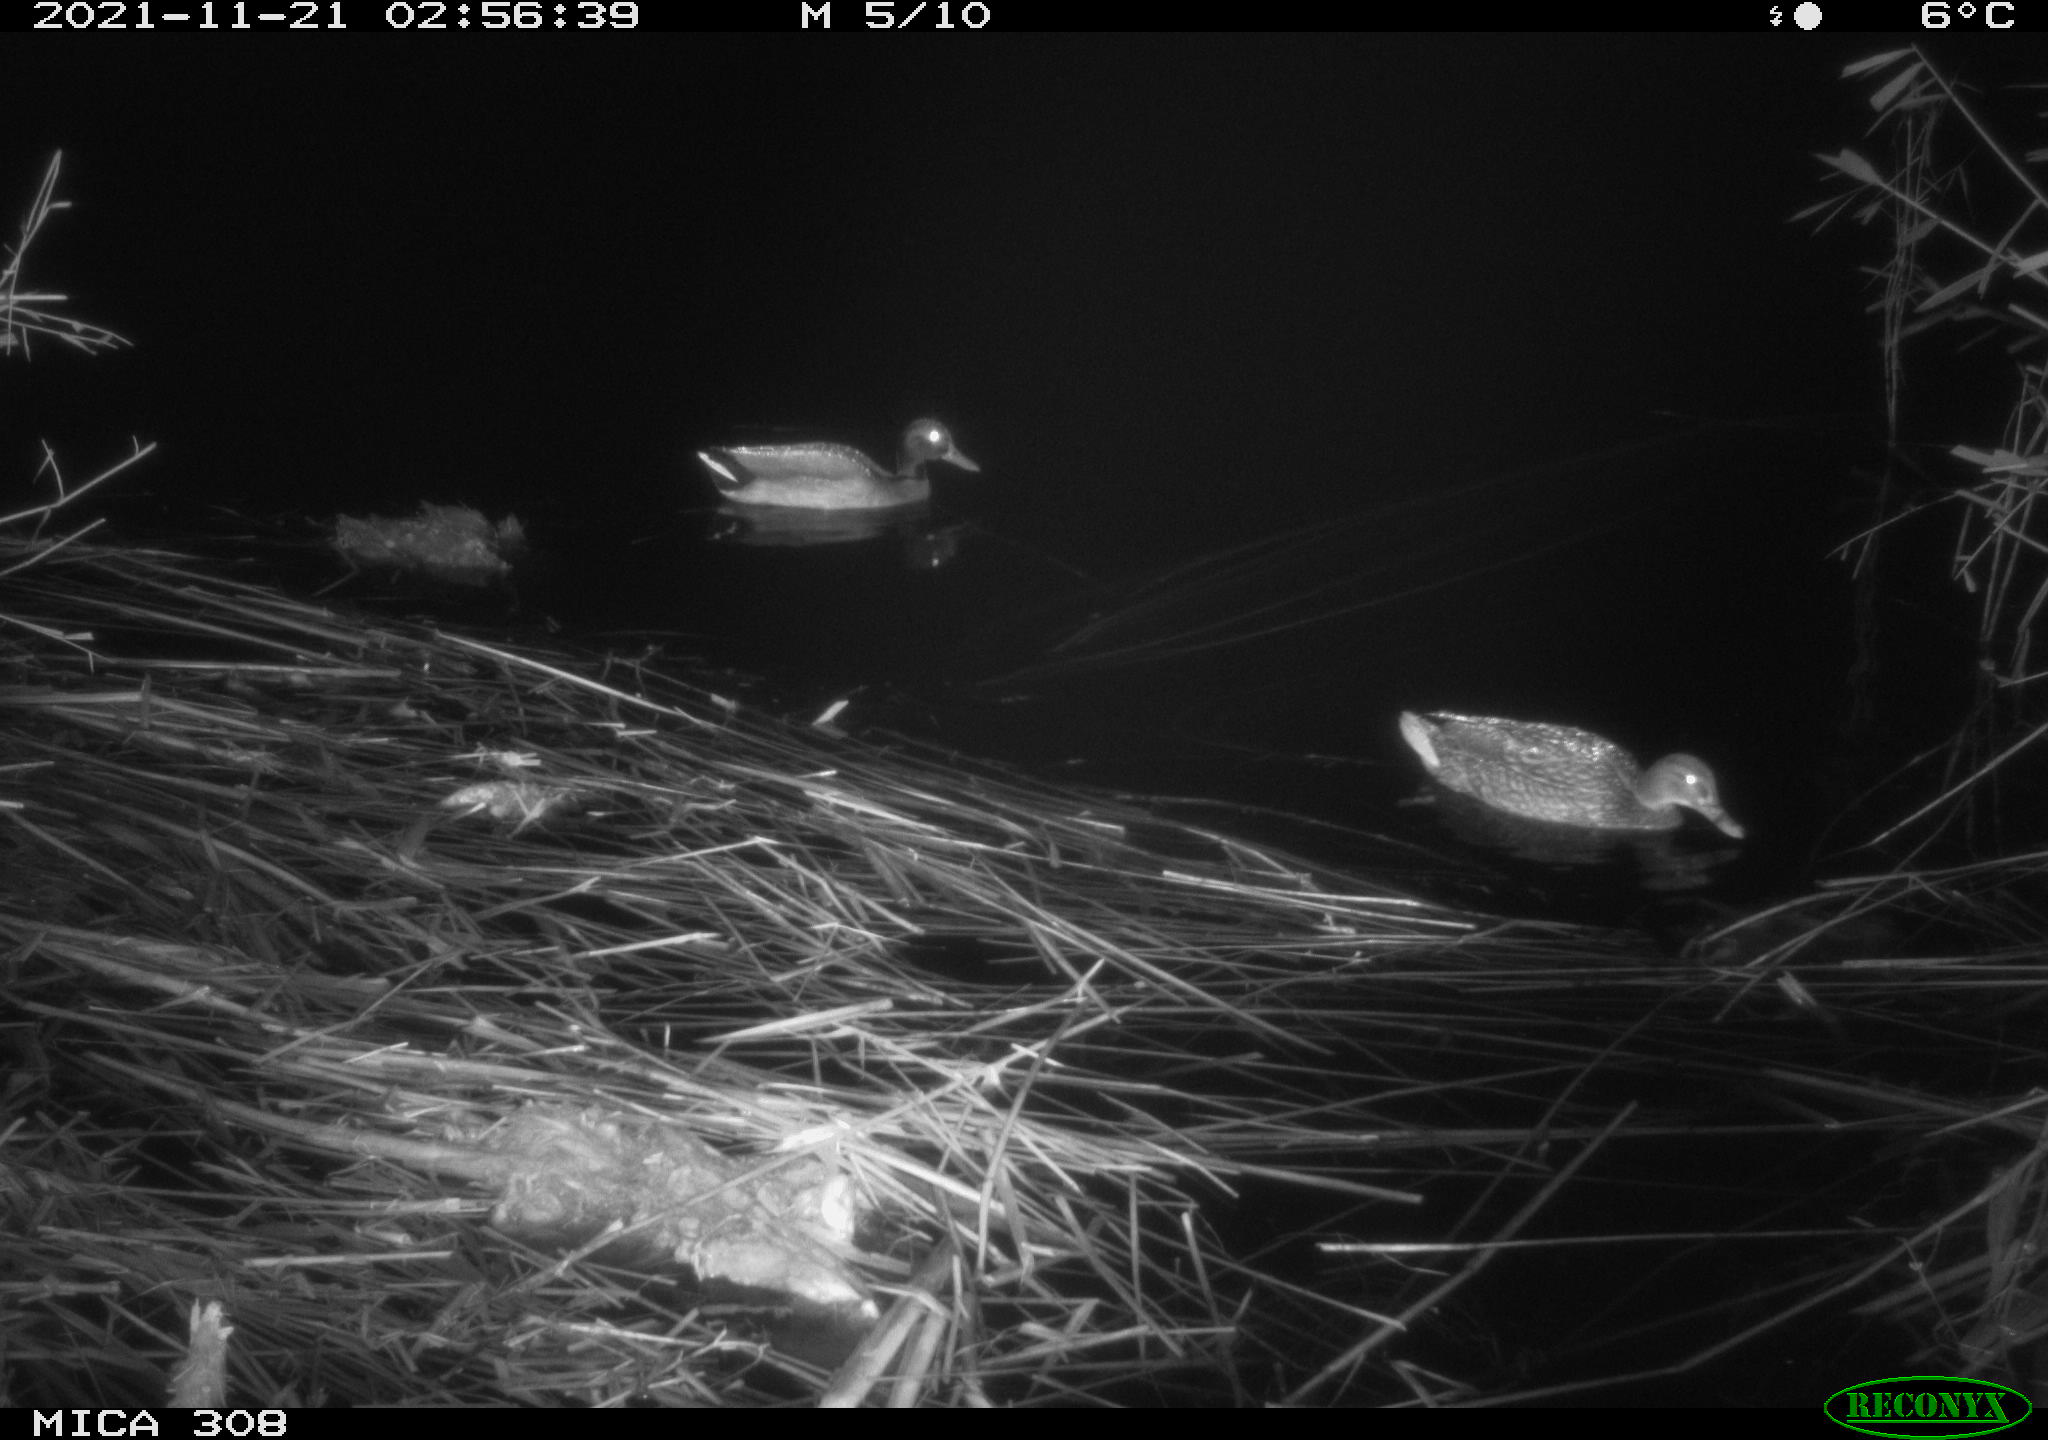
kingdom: Animalia
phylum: Chordata
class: Aves
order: Anseriformes
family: Anatidae
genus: Anas
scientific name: Anas platyrhynchos
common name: Mallard
